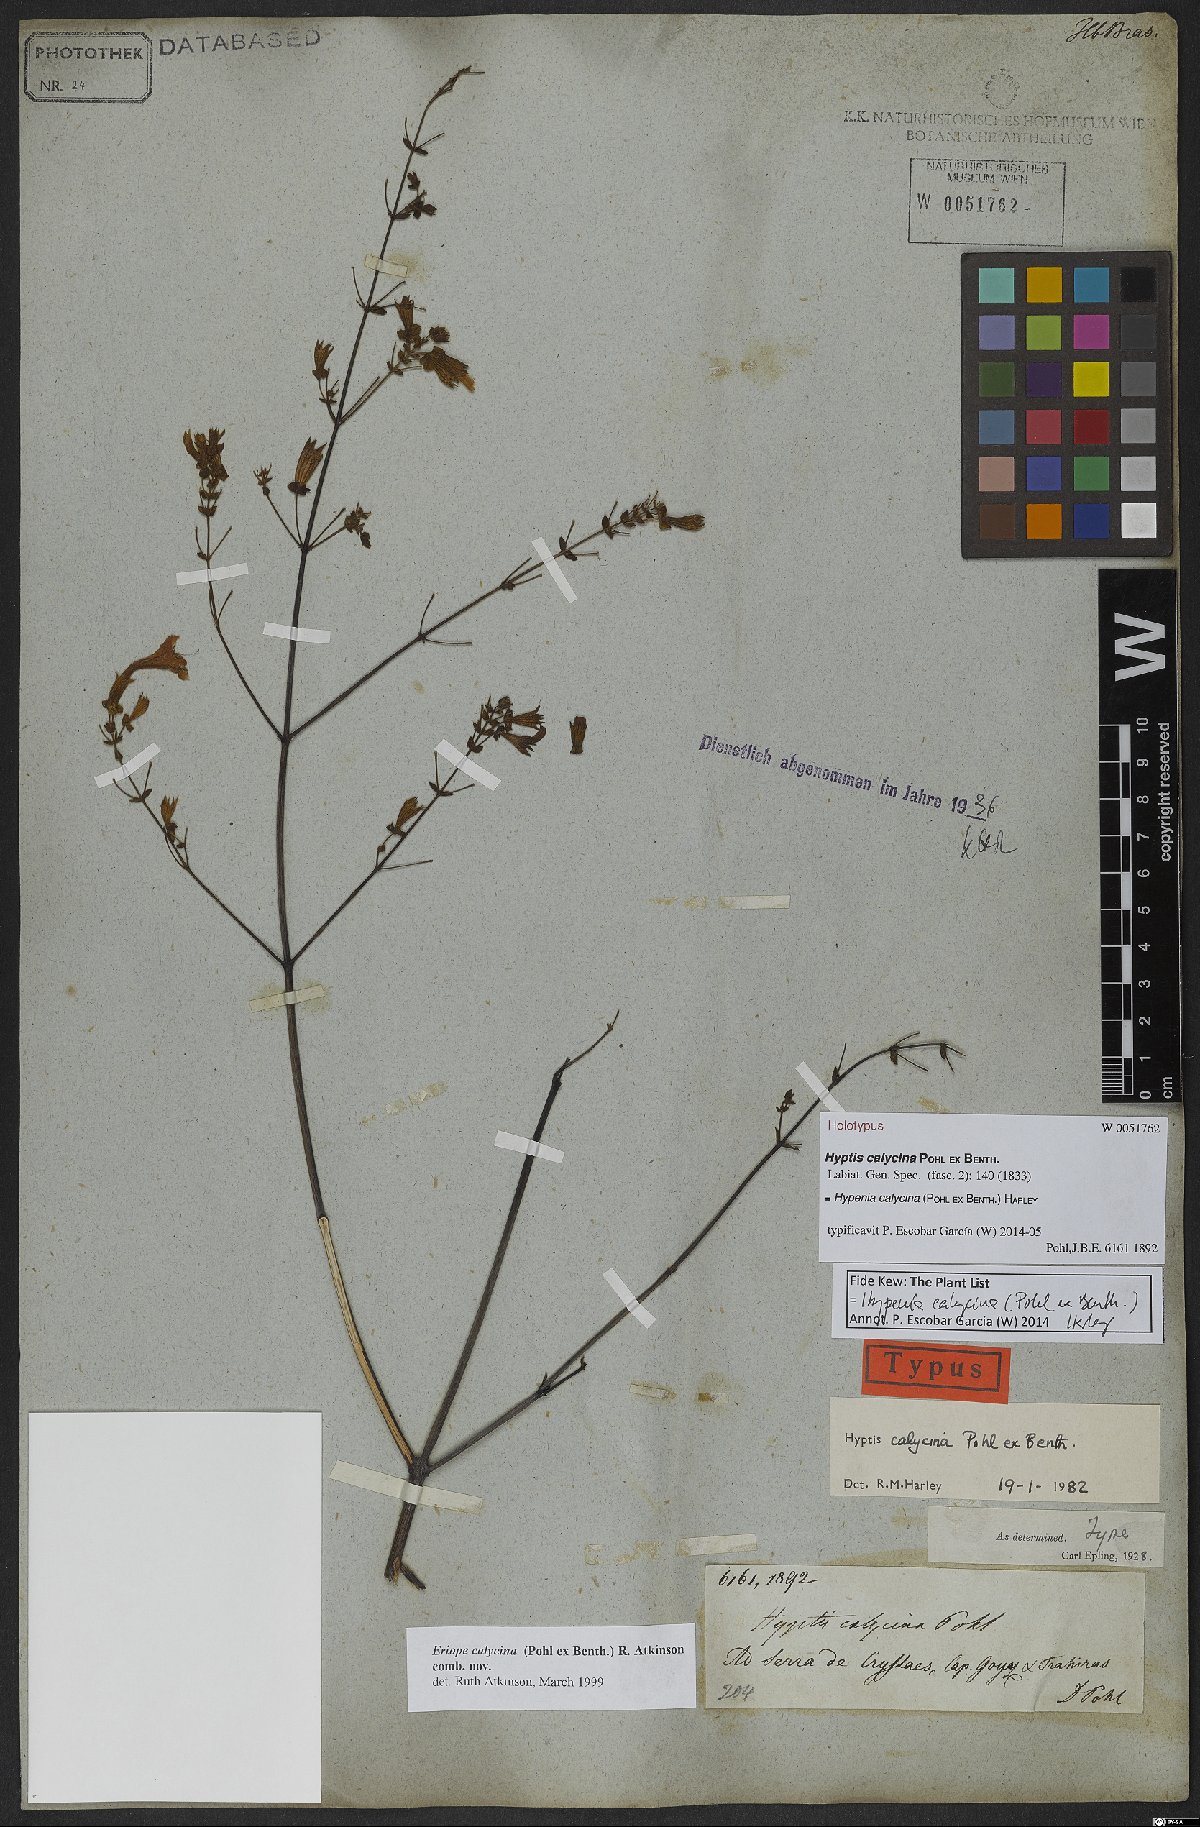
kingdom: Plantae
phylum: Tracheophyta
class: Magnoliopsida
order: Lamiales
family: Lamiaceae
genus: Hypenia
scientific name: Hypenia calycina
